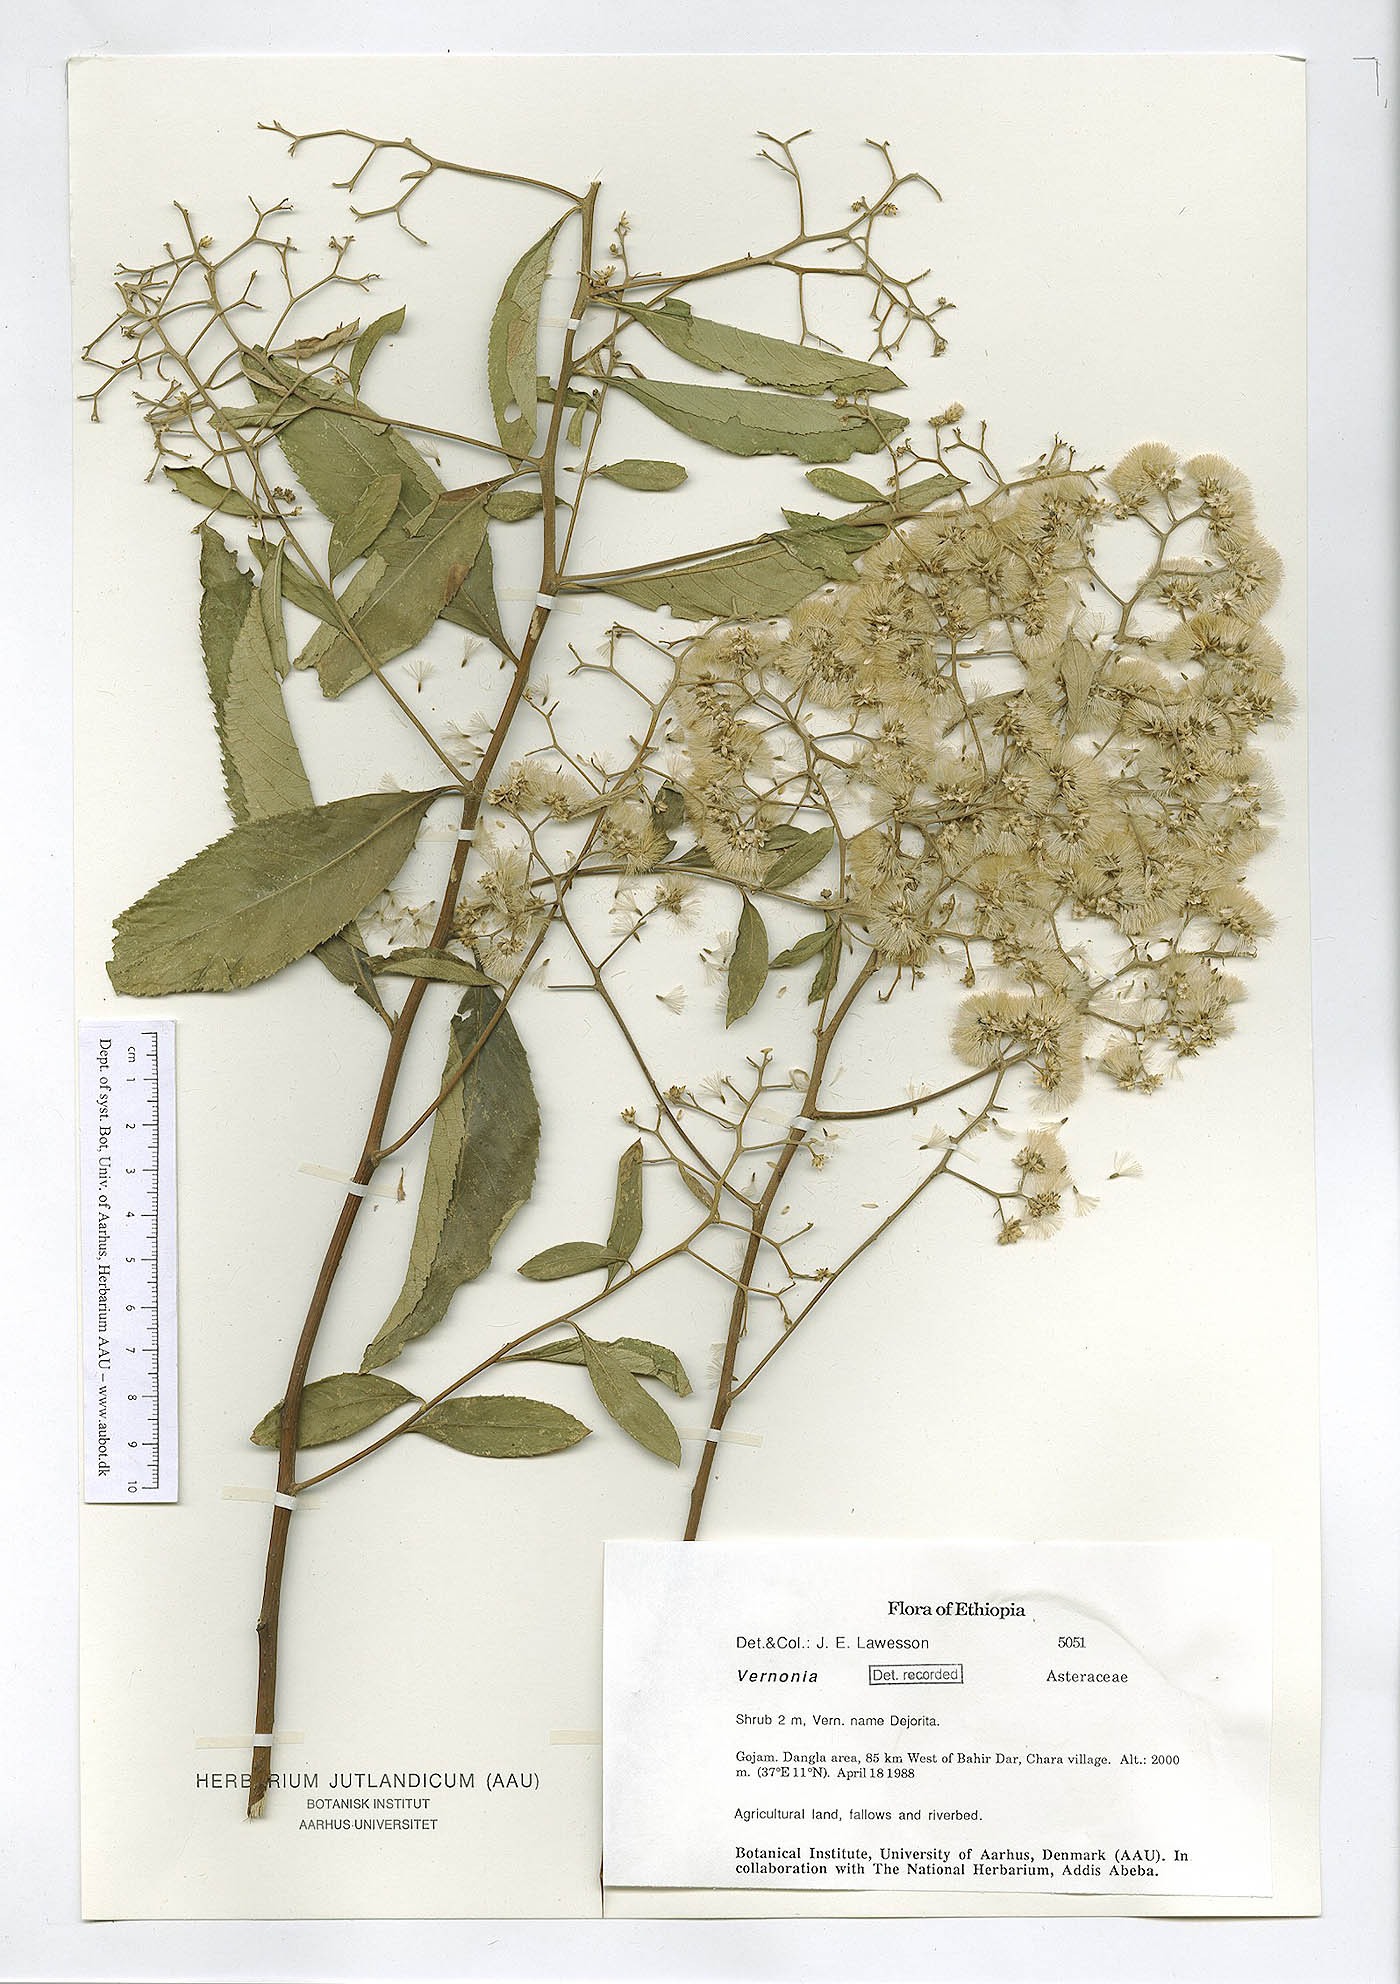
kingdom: Plantae
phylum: Tracheophyta
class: Magnoliopsida
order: Asterales
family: Asteraceae
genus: Vernonia
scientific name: Vernonia
